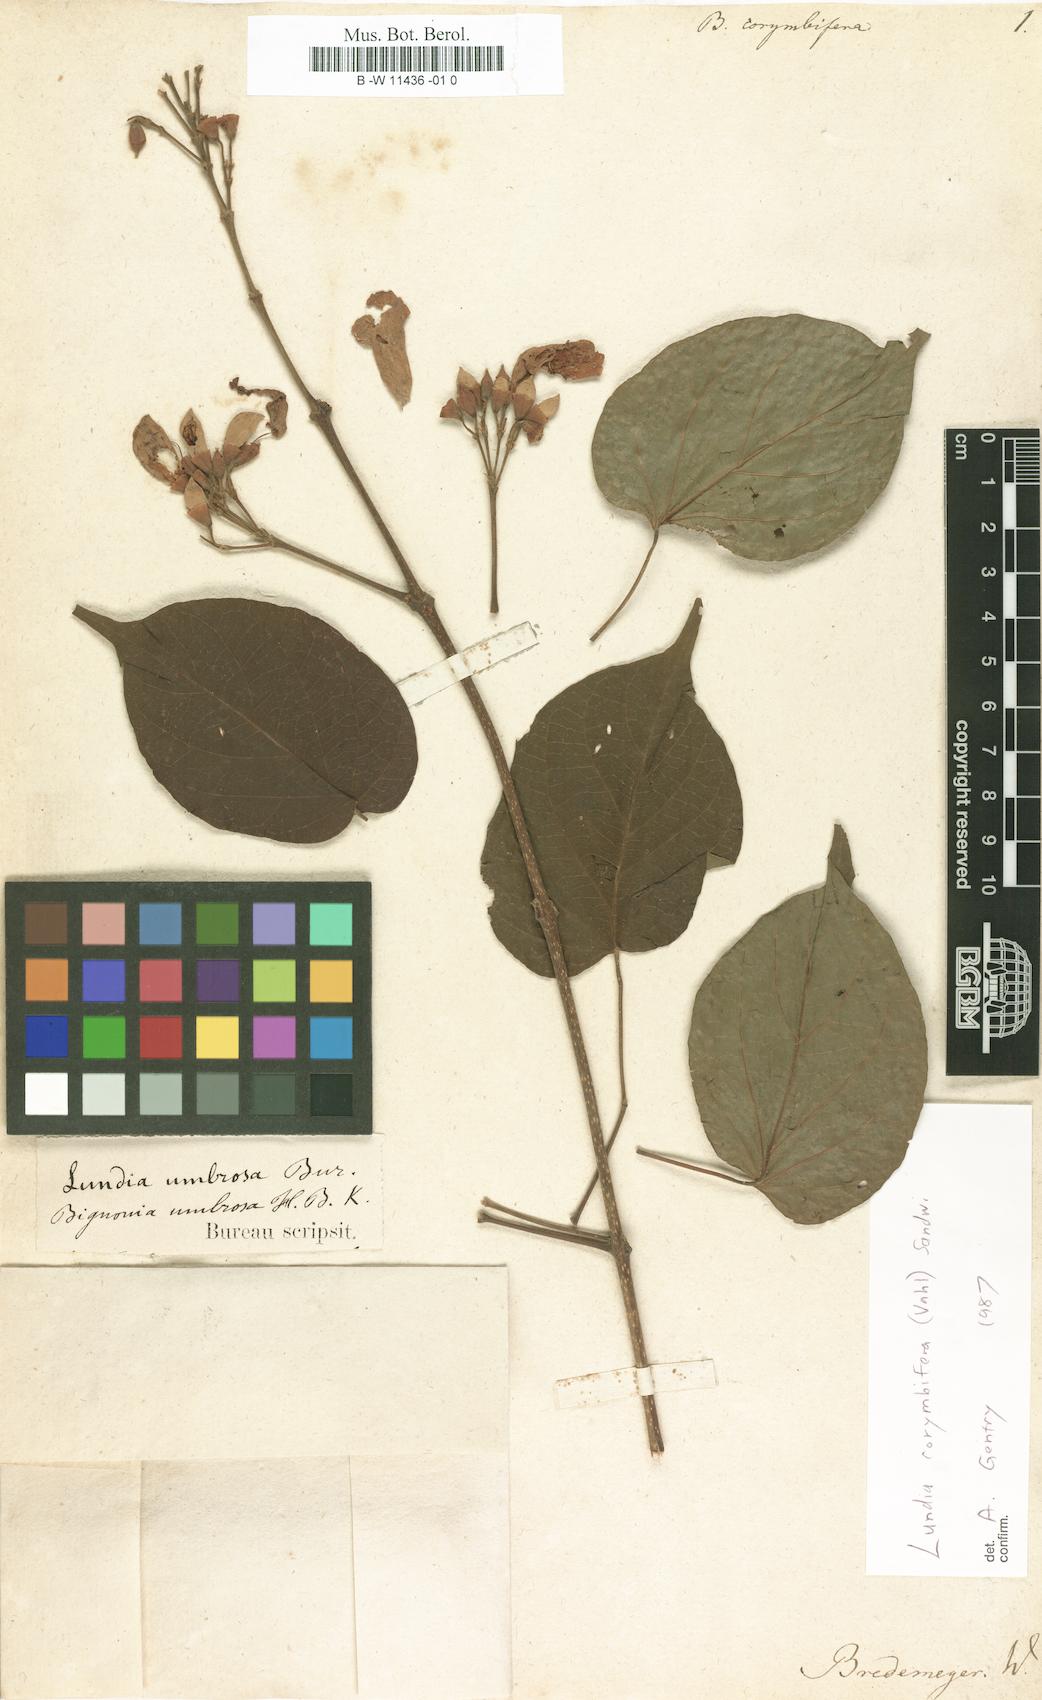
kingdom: Plantae
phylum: Tracheophyta
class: Magnoliopsida
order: Lamiales
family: Bignoniaceae
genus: Lundia
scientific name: Lundia corymbifera
